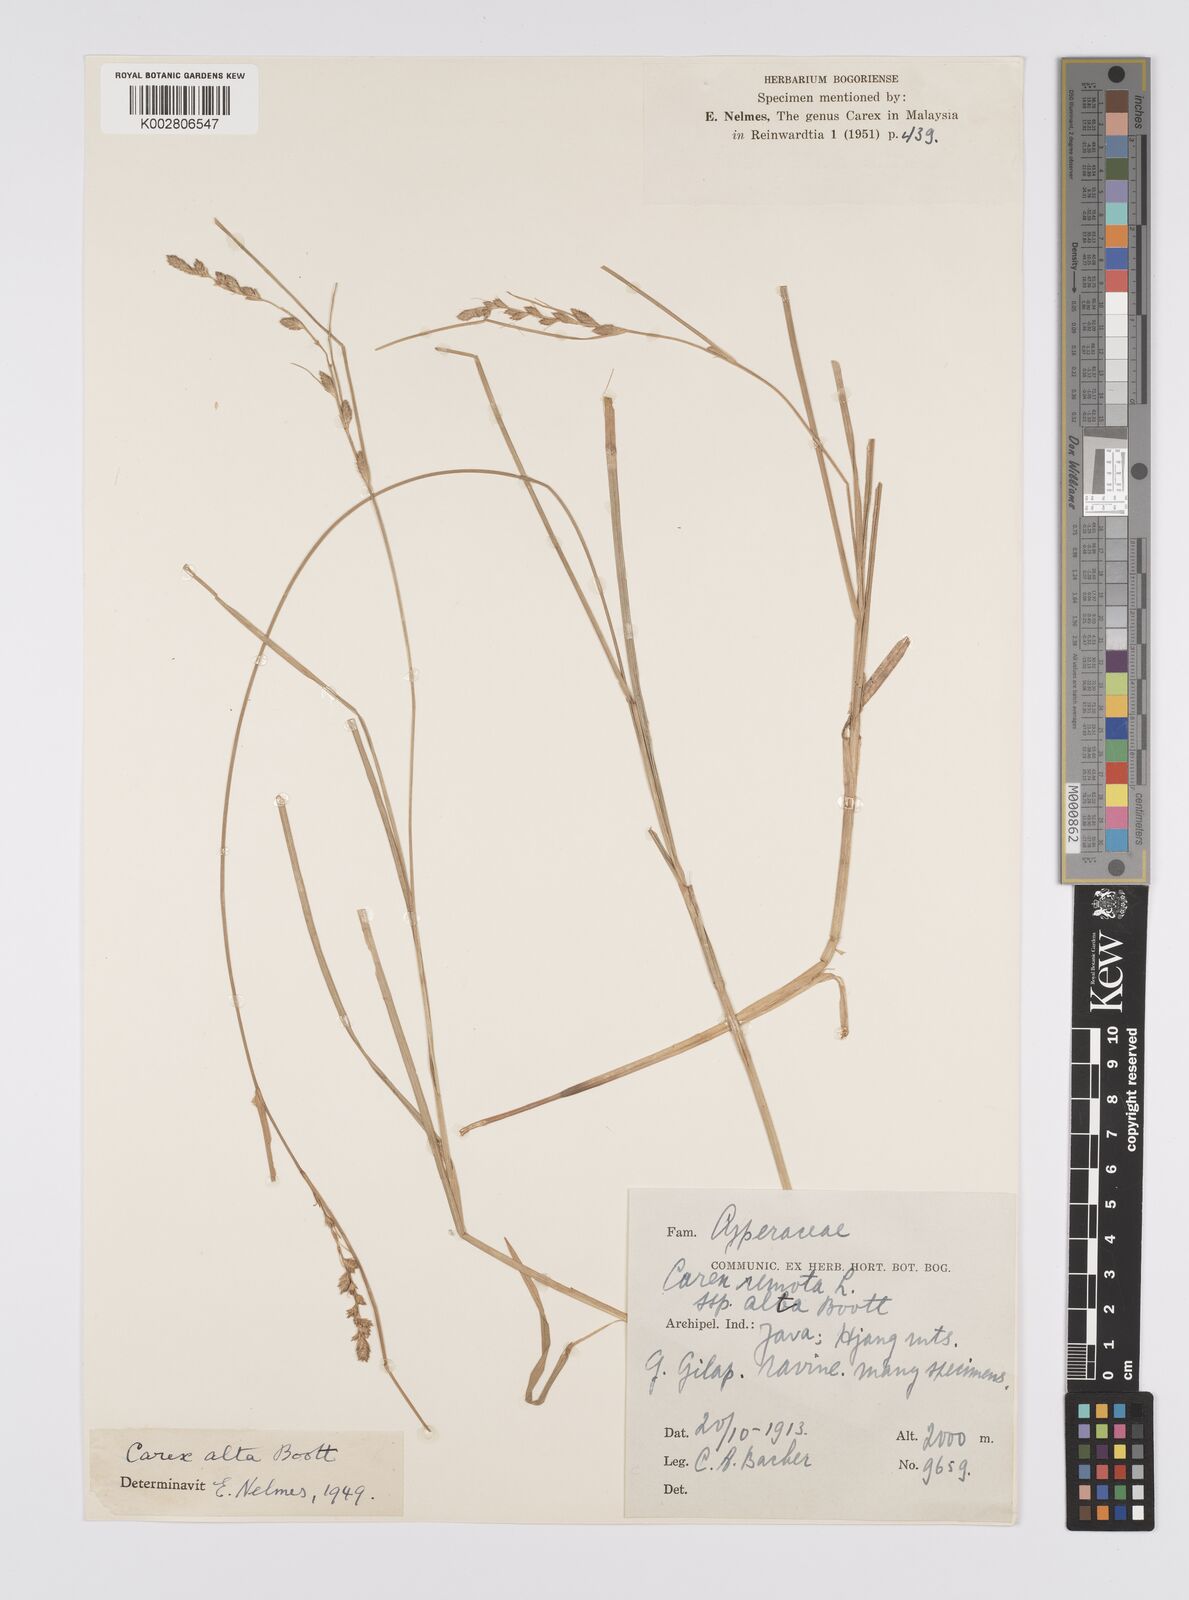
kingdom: Plantae
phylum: Tracheophyta
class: Liliopsida
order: Poales
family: Cyperaceae
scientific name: Cyperaceae
